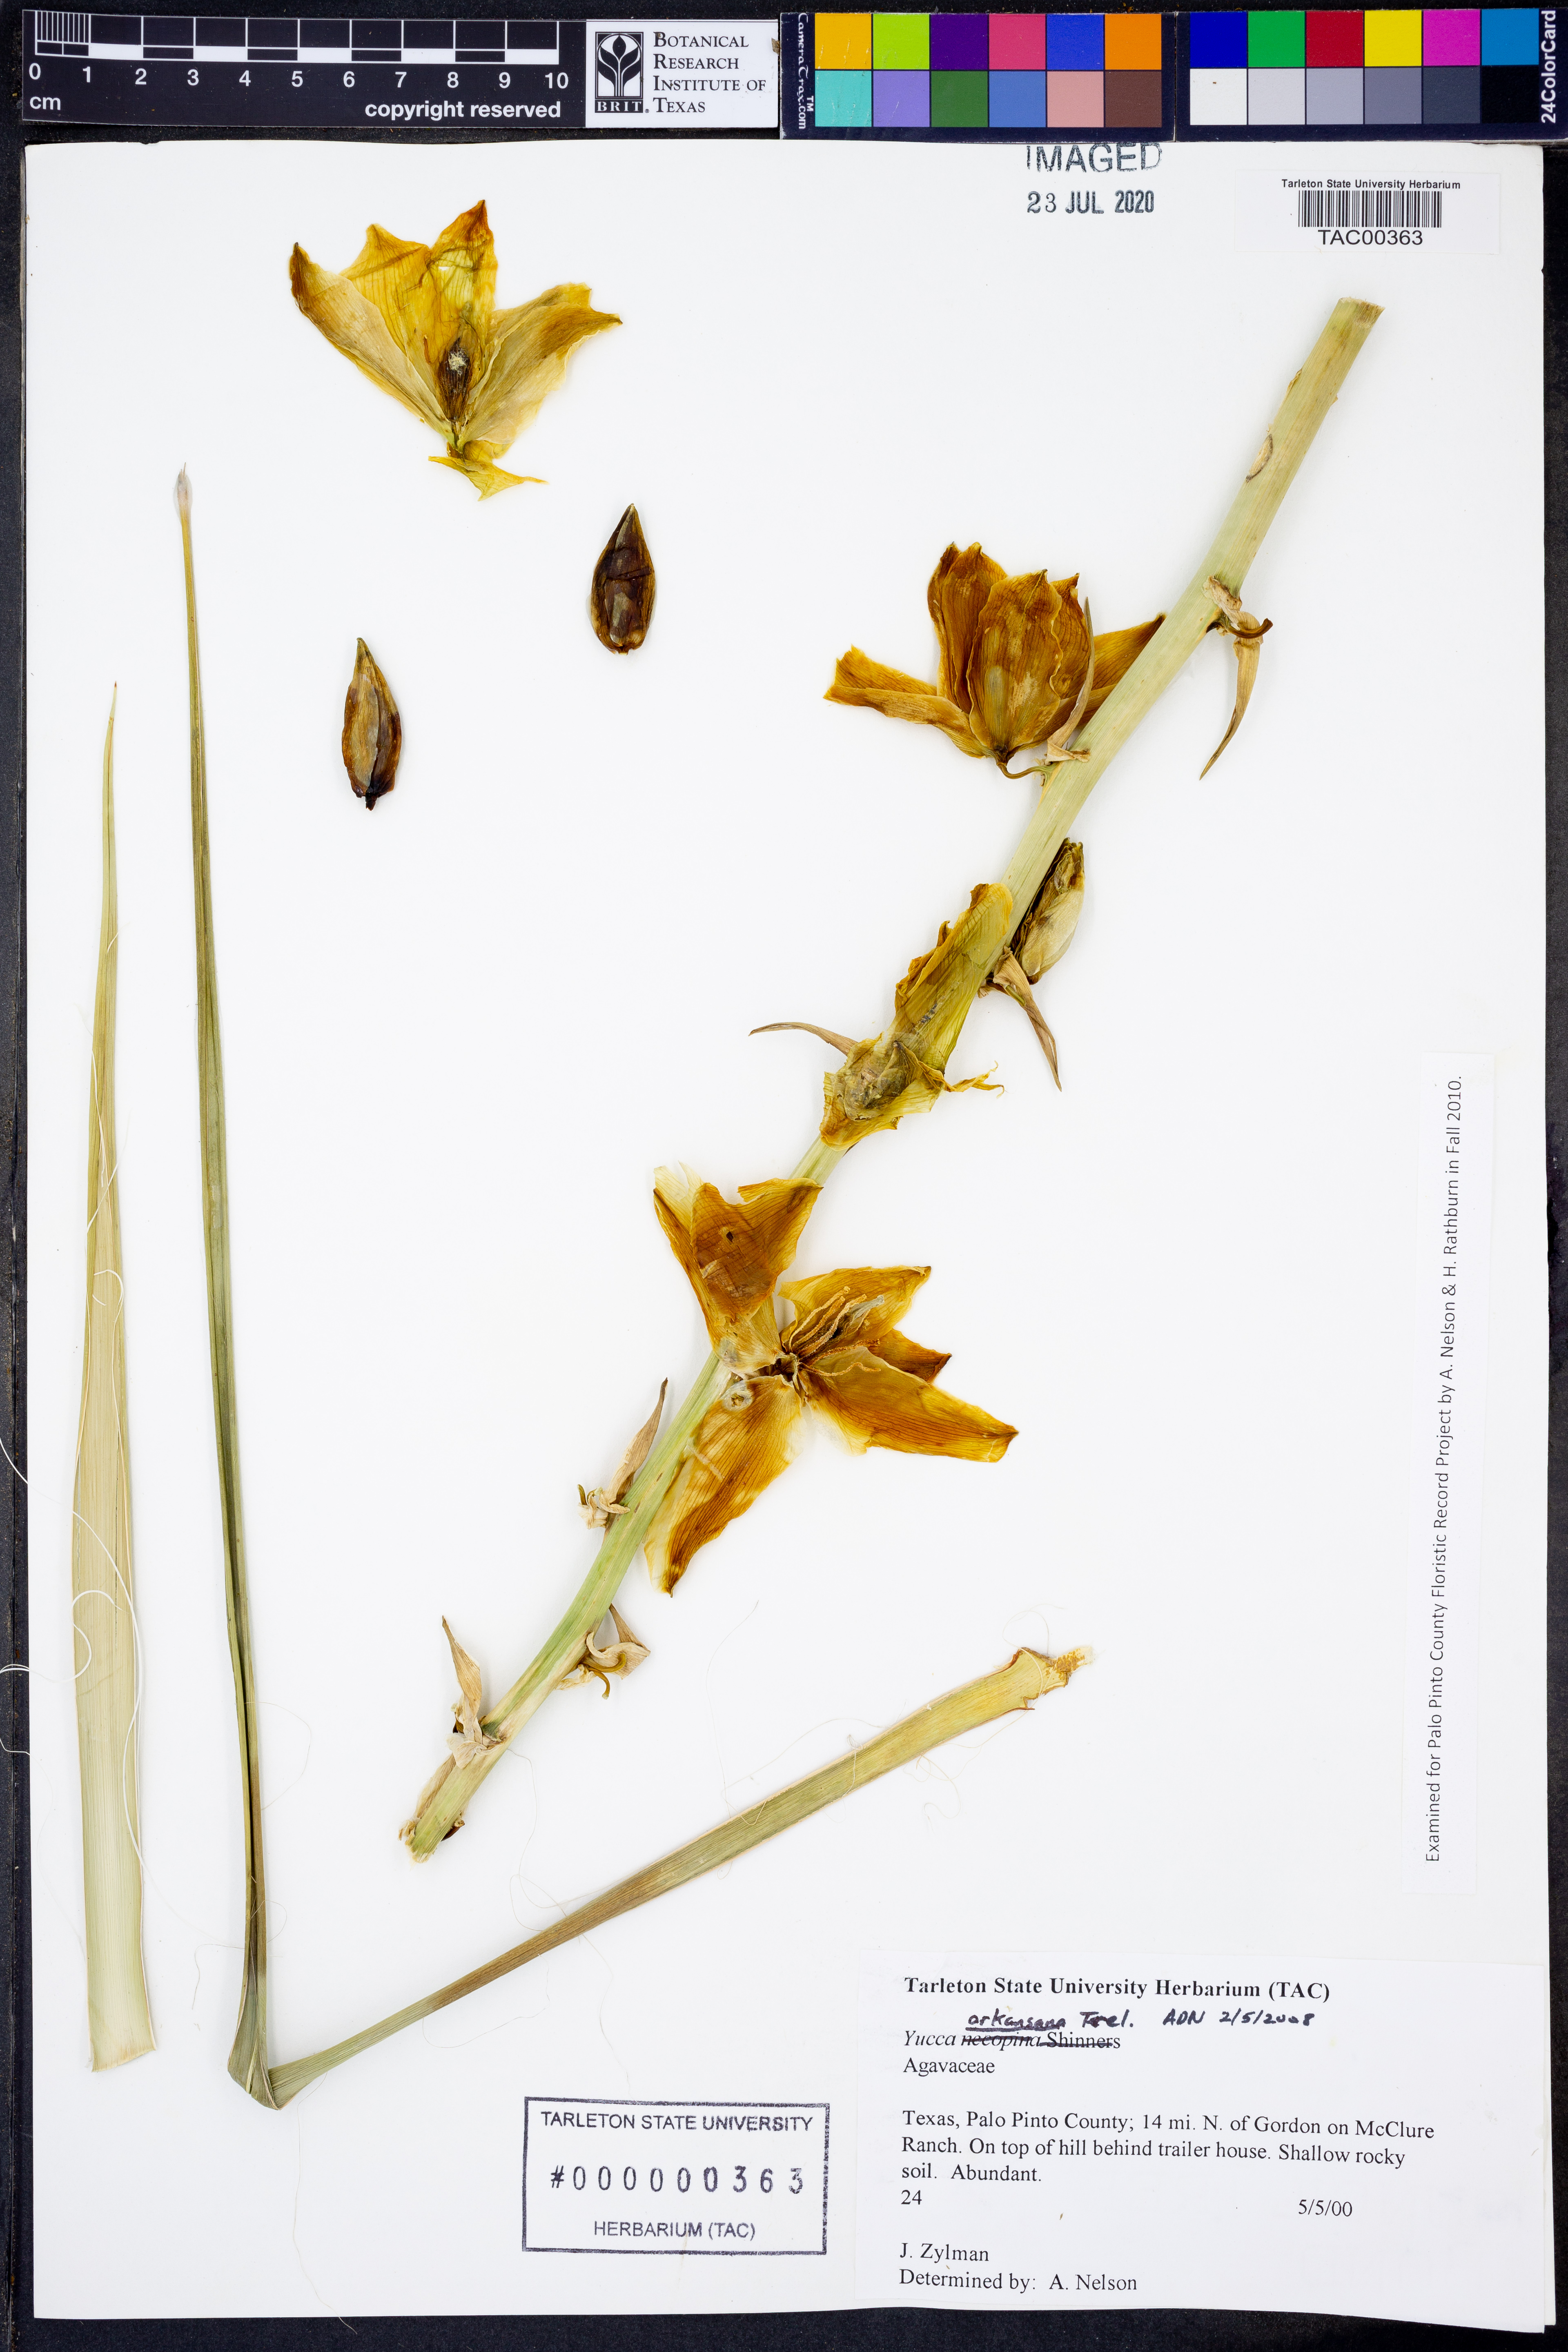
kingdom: Plantae
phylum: Tracheophyta
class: Liliopsida
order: Asparagales
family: Asparagaceae
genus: Yucca
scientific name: Yucca arkansana
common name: Arkansas yucca
